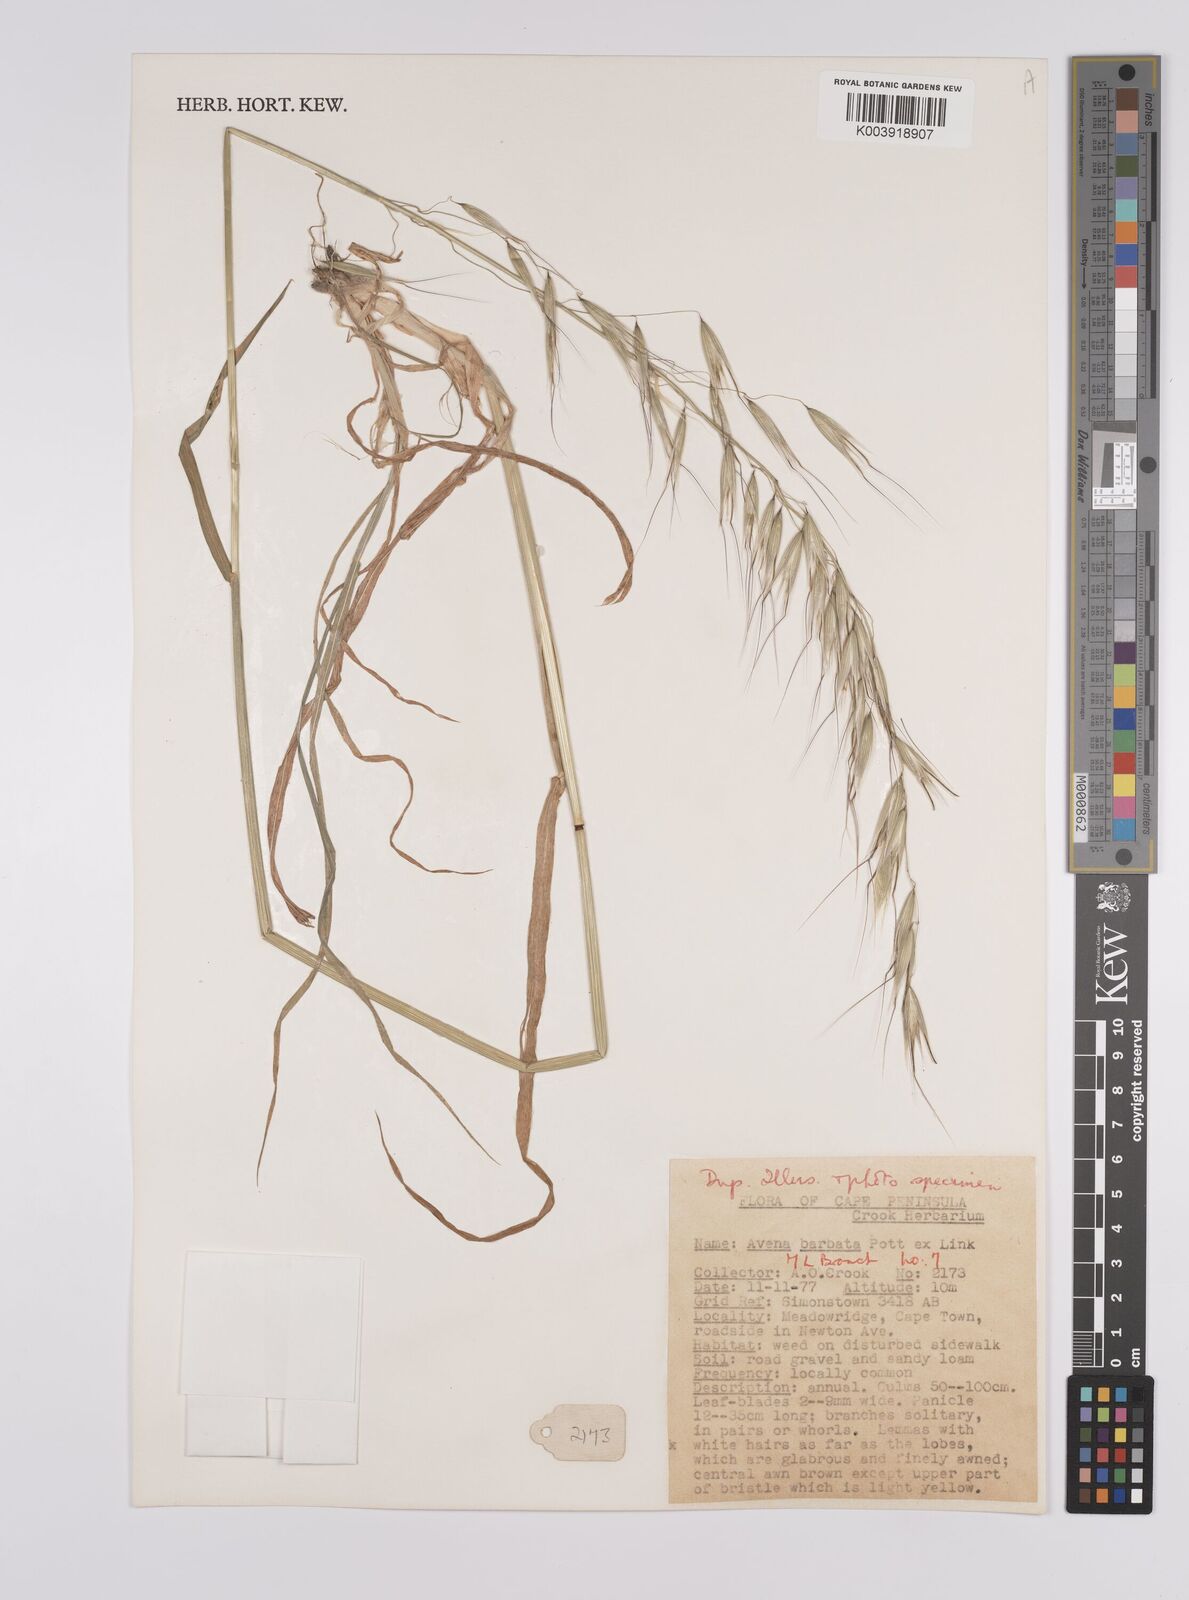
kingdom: Plantae
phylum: Tracheophyta
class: Liliopsida
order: Poales
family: Poaceae
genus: Avena
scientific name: Avena
